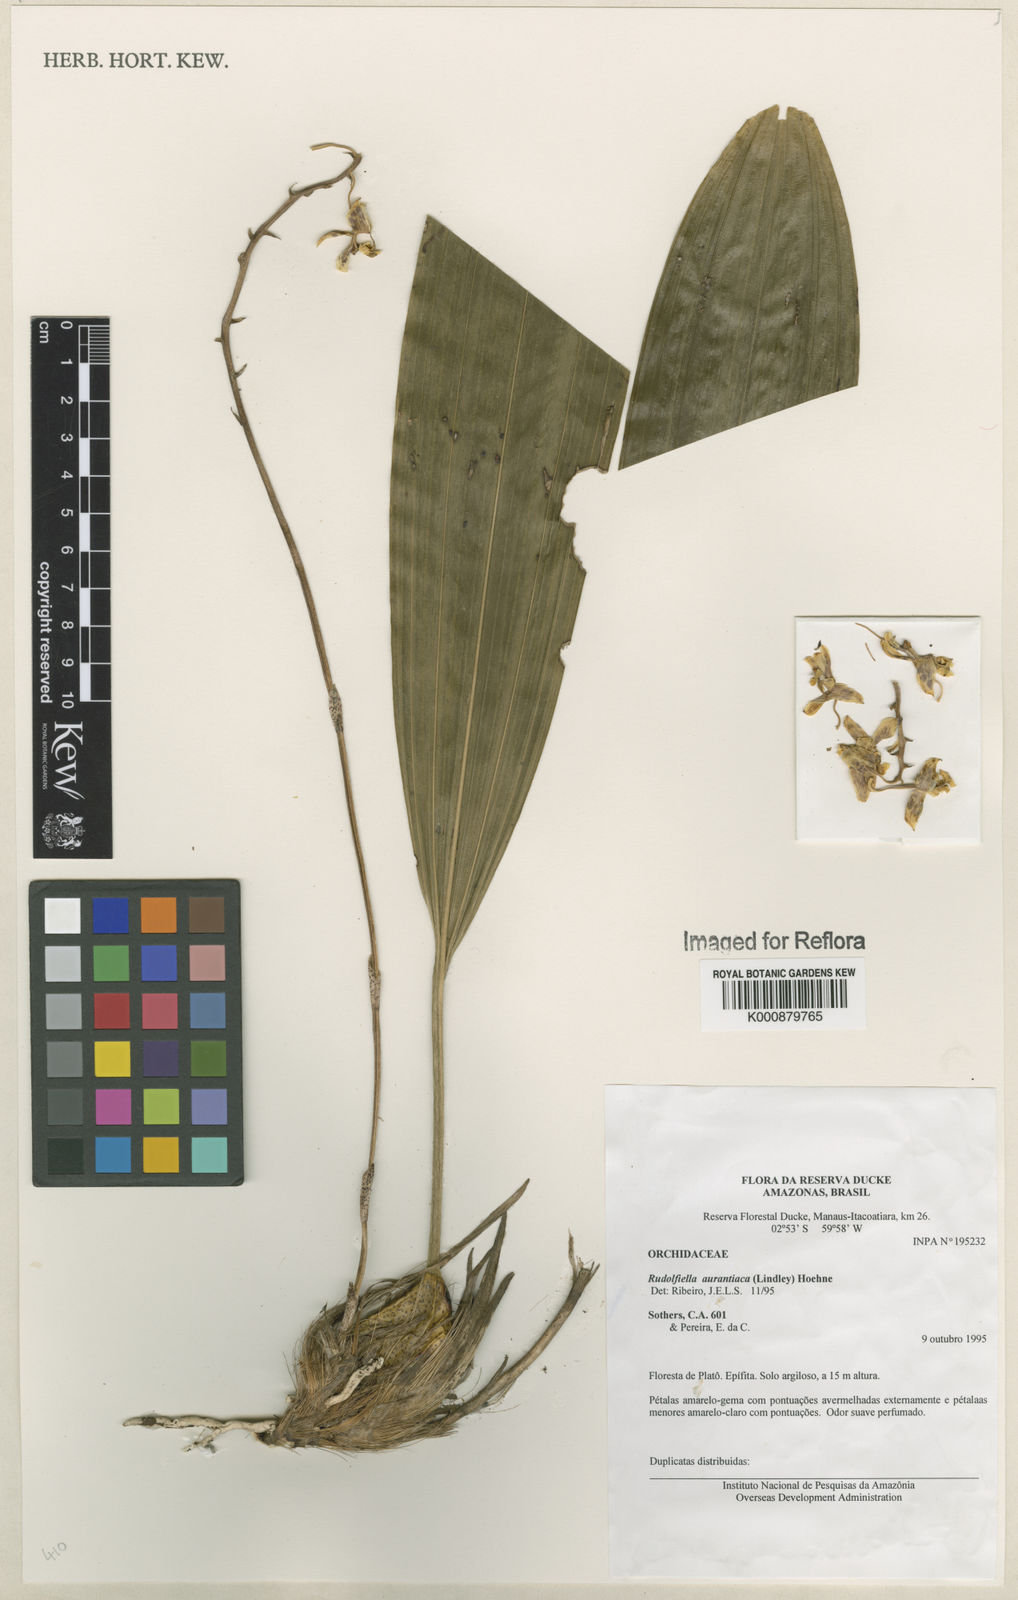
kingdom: Plantae
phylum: Tracheophyta
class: Liliopsida
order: Asparagales
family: Orchidaceae
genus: Rudolfiella
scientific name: Rudolfiella aurantiaca
